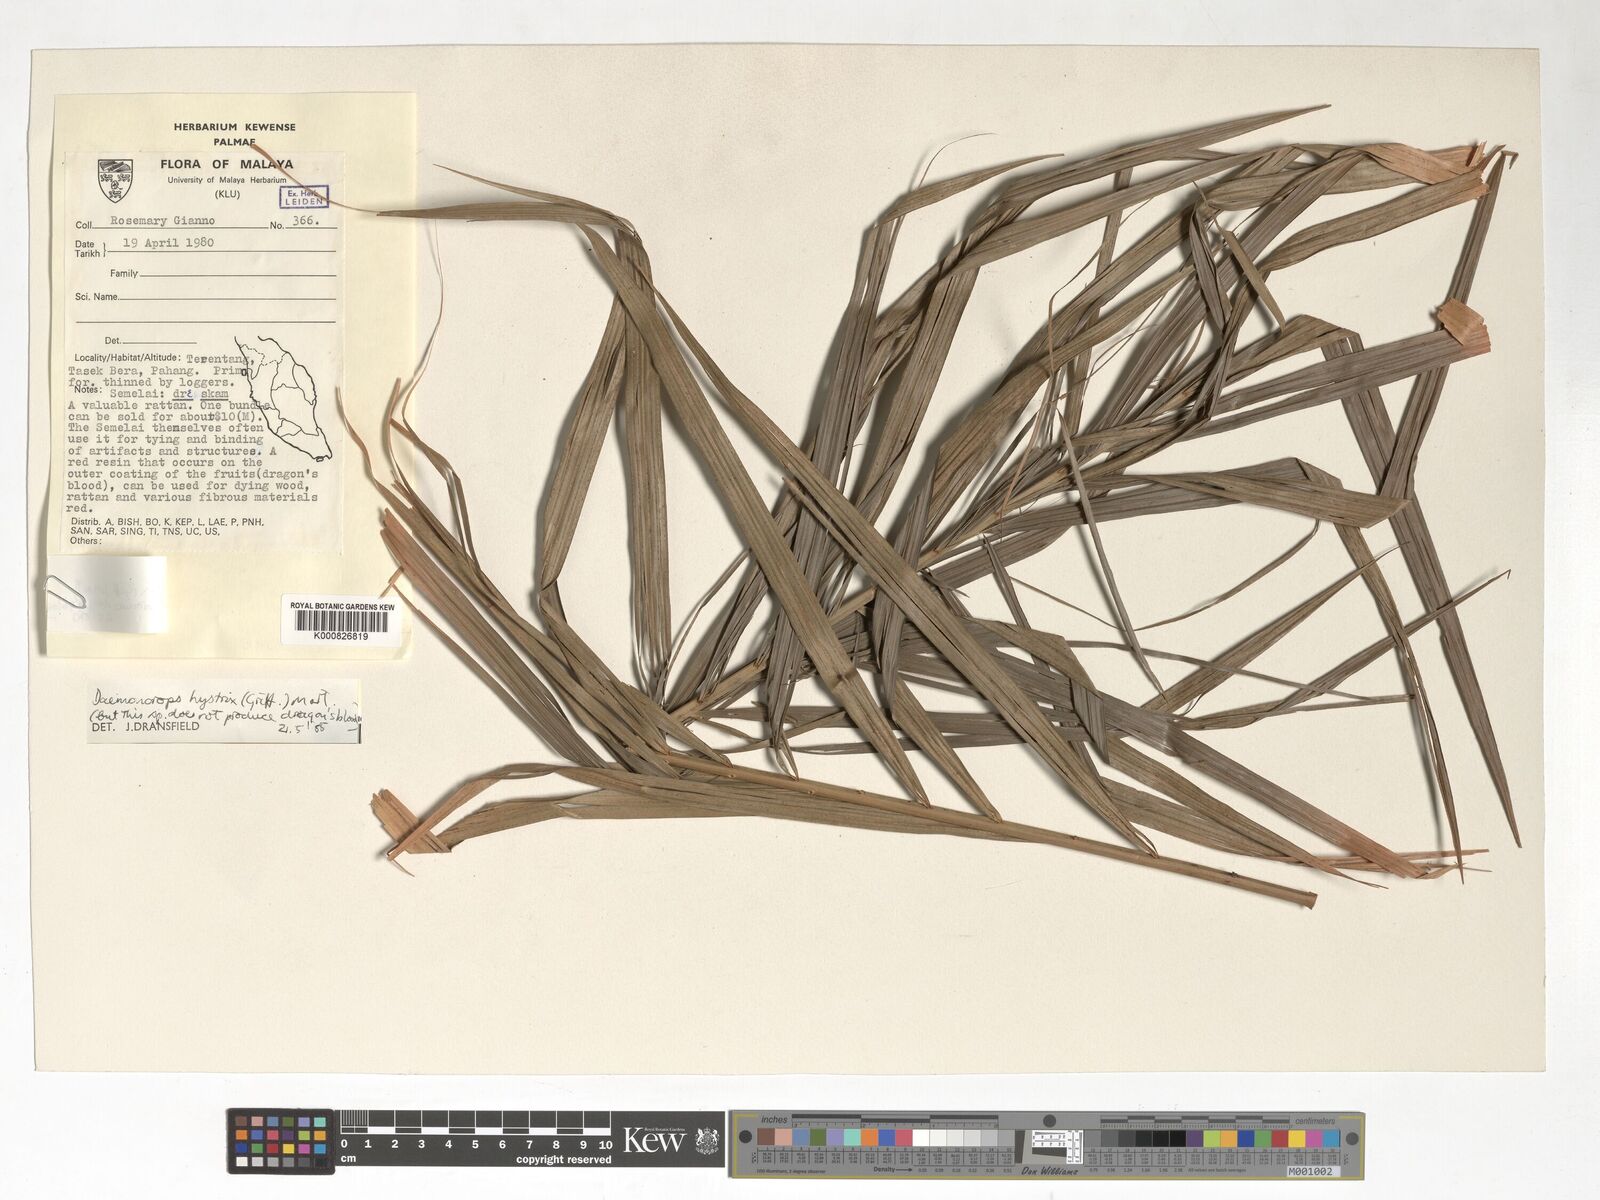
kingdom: Plantae
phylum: Tracheophyta
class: Liliopsida
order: Arecales
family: Arecaceae
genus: Calamus
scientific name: Calamus hirsutus
